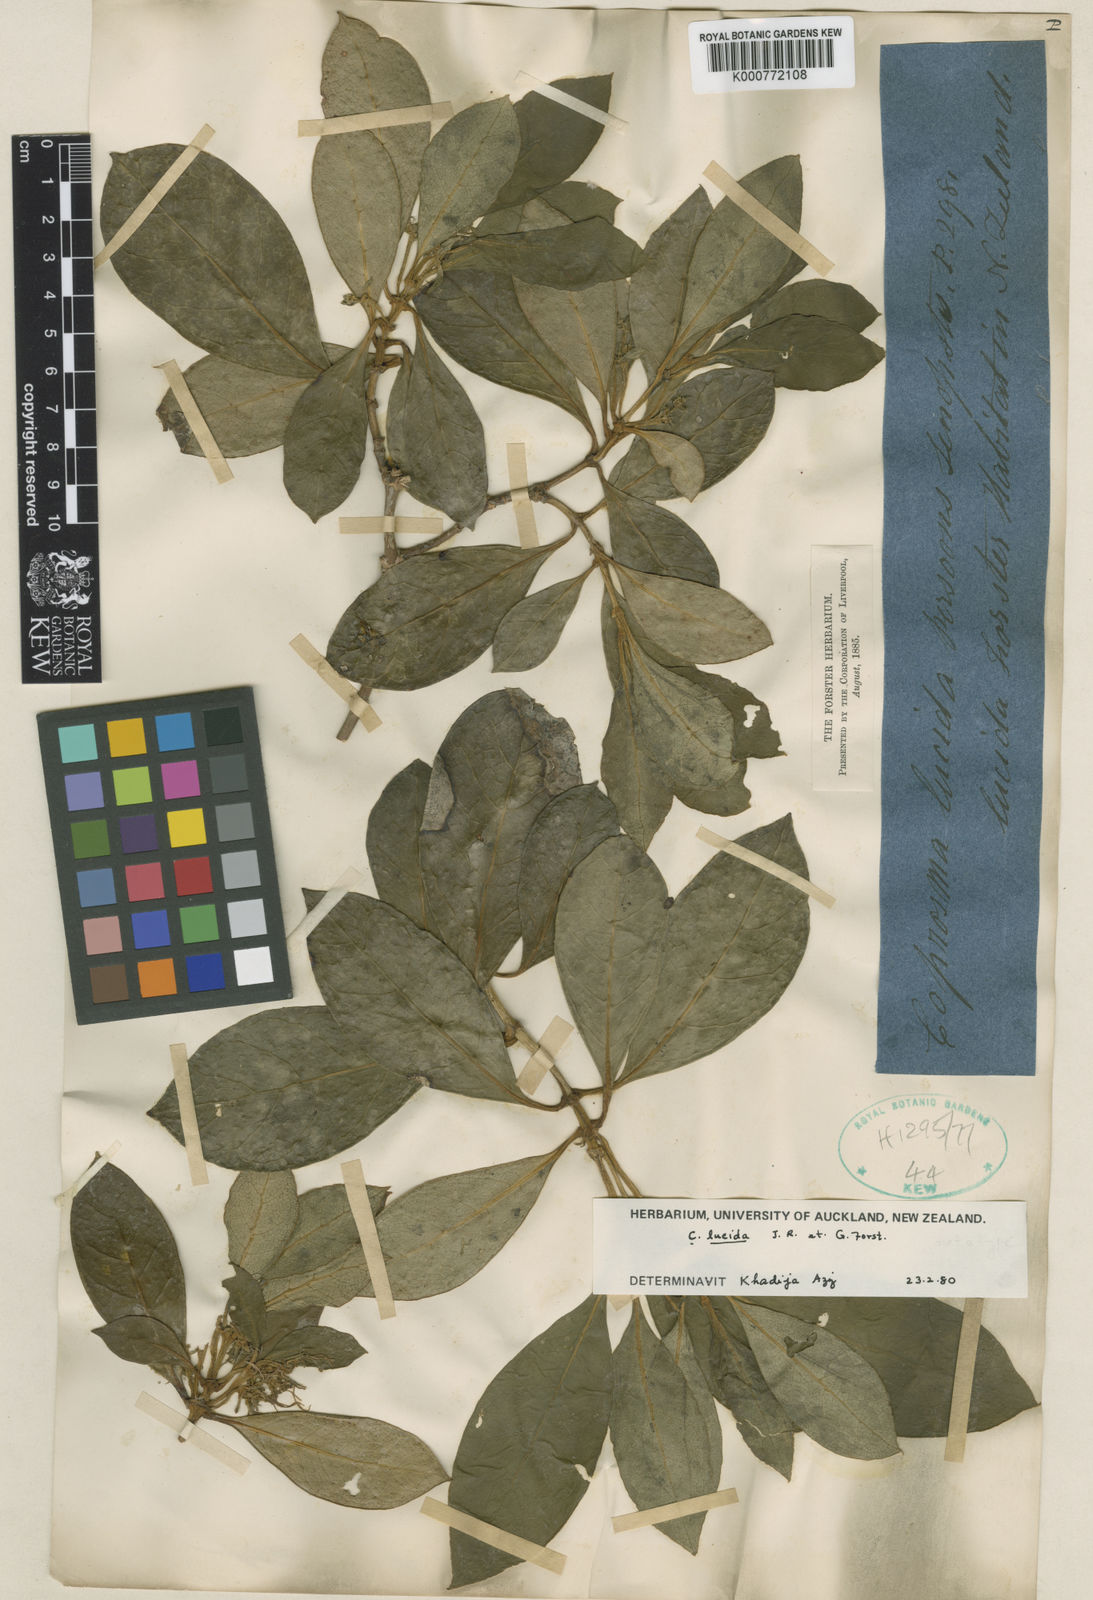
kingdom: Plantae
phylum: Tracheophyta
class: Magnoliopsida
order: Gentianales
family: Rubiaceae
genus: Coprosma
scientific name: Coprosma lucida
